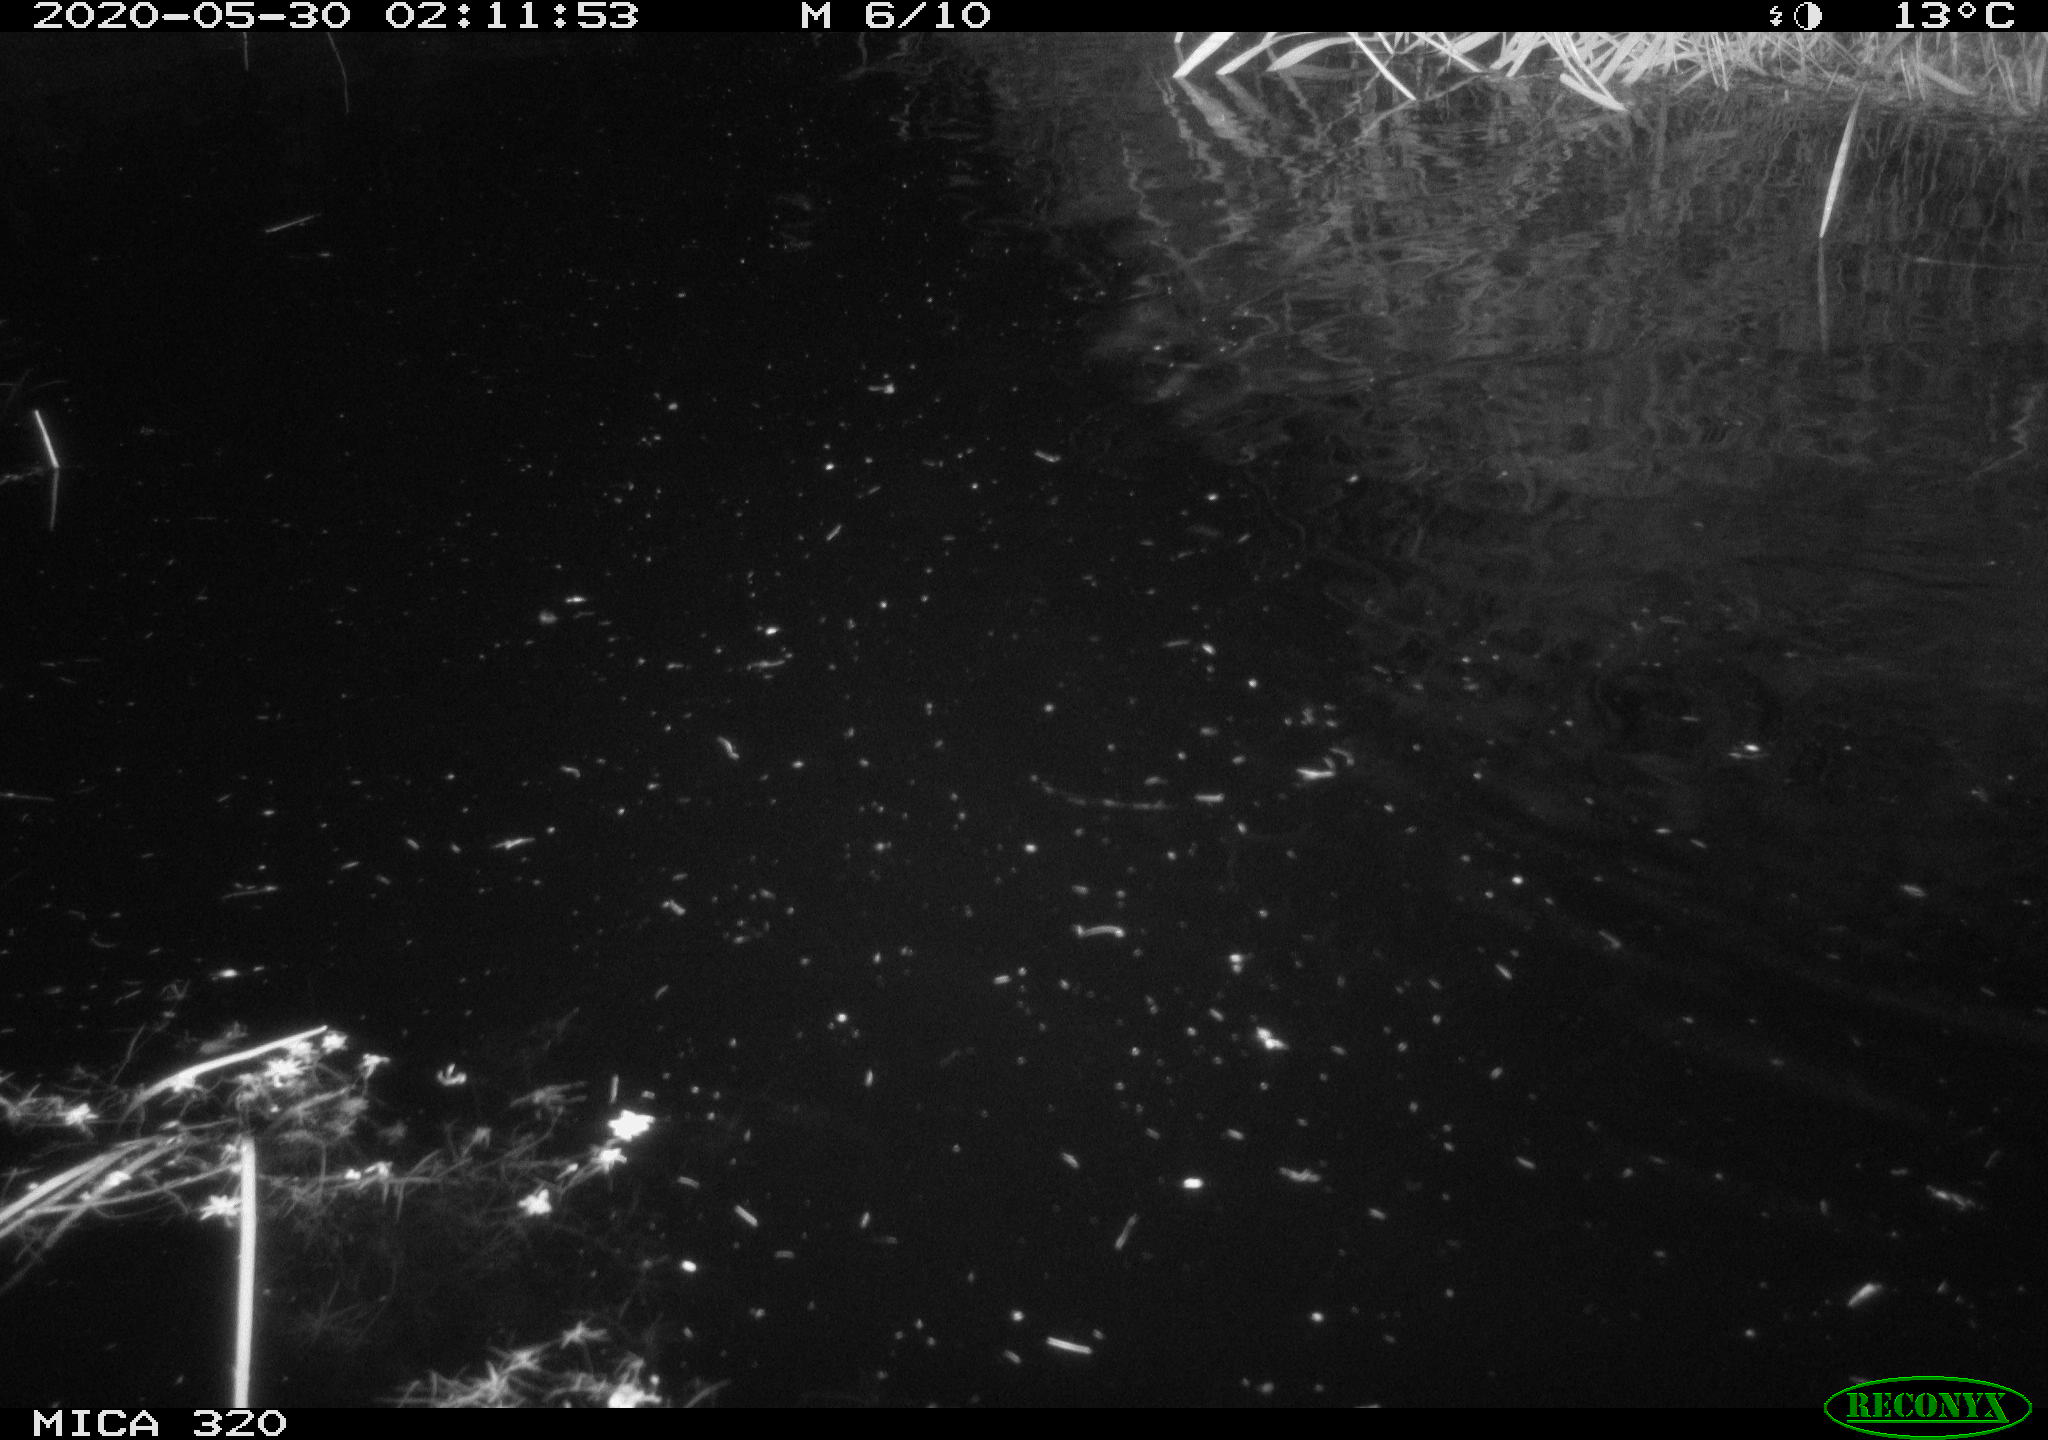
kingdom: Animalia
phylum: Chordata
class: Aves
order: Anseriformes
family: Anatidae
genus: Anas
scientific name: Anas platyrhynchos
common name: Mallard
